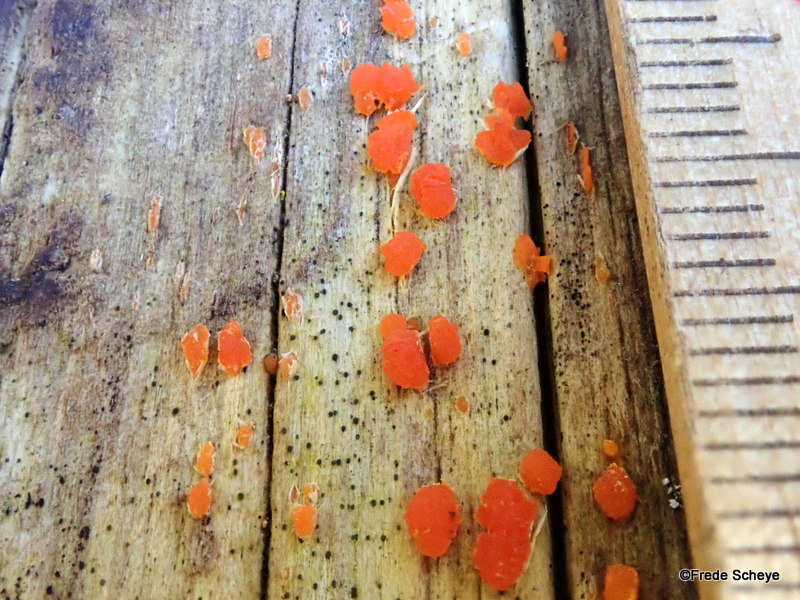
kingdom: Fungi
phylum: Basidiomycota
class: Dacrymycetes
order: Dacrymycetales
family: Dacrymycetaceae
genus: Dacrymyces
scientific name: Dacrymyces stillatus
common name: almindelig tåresvamp
